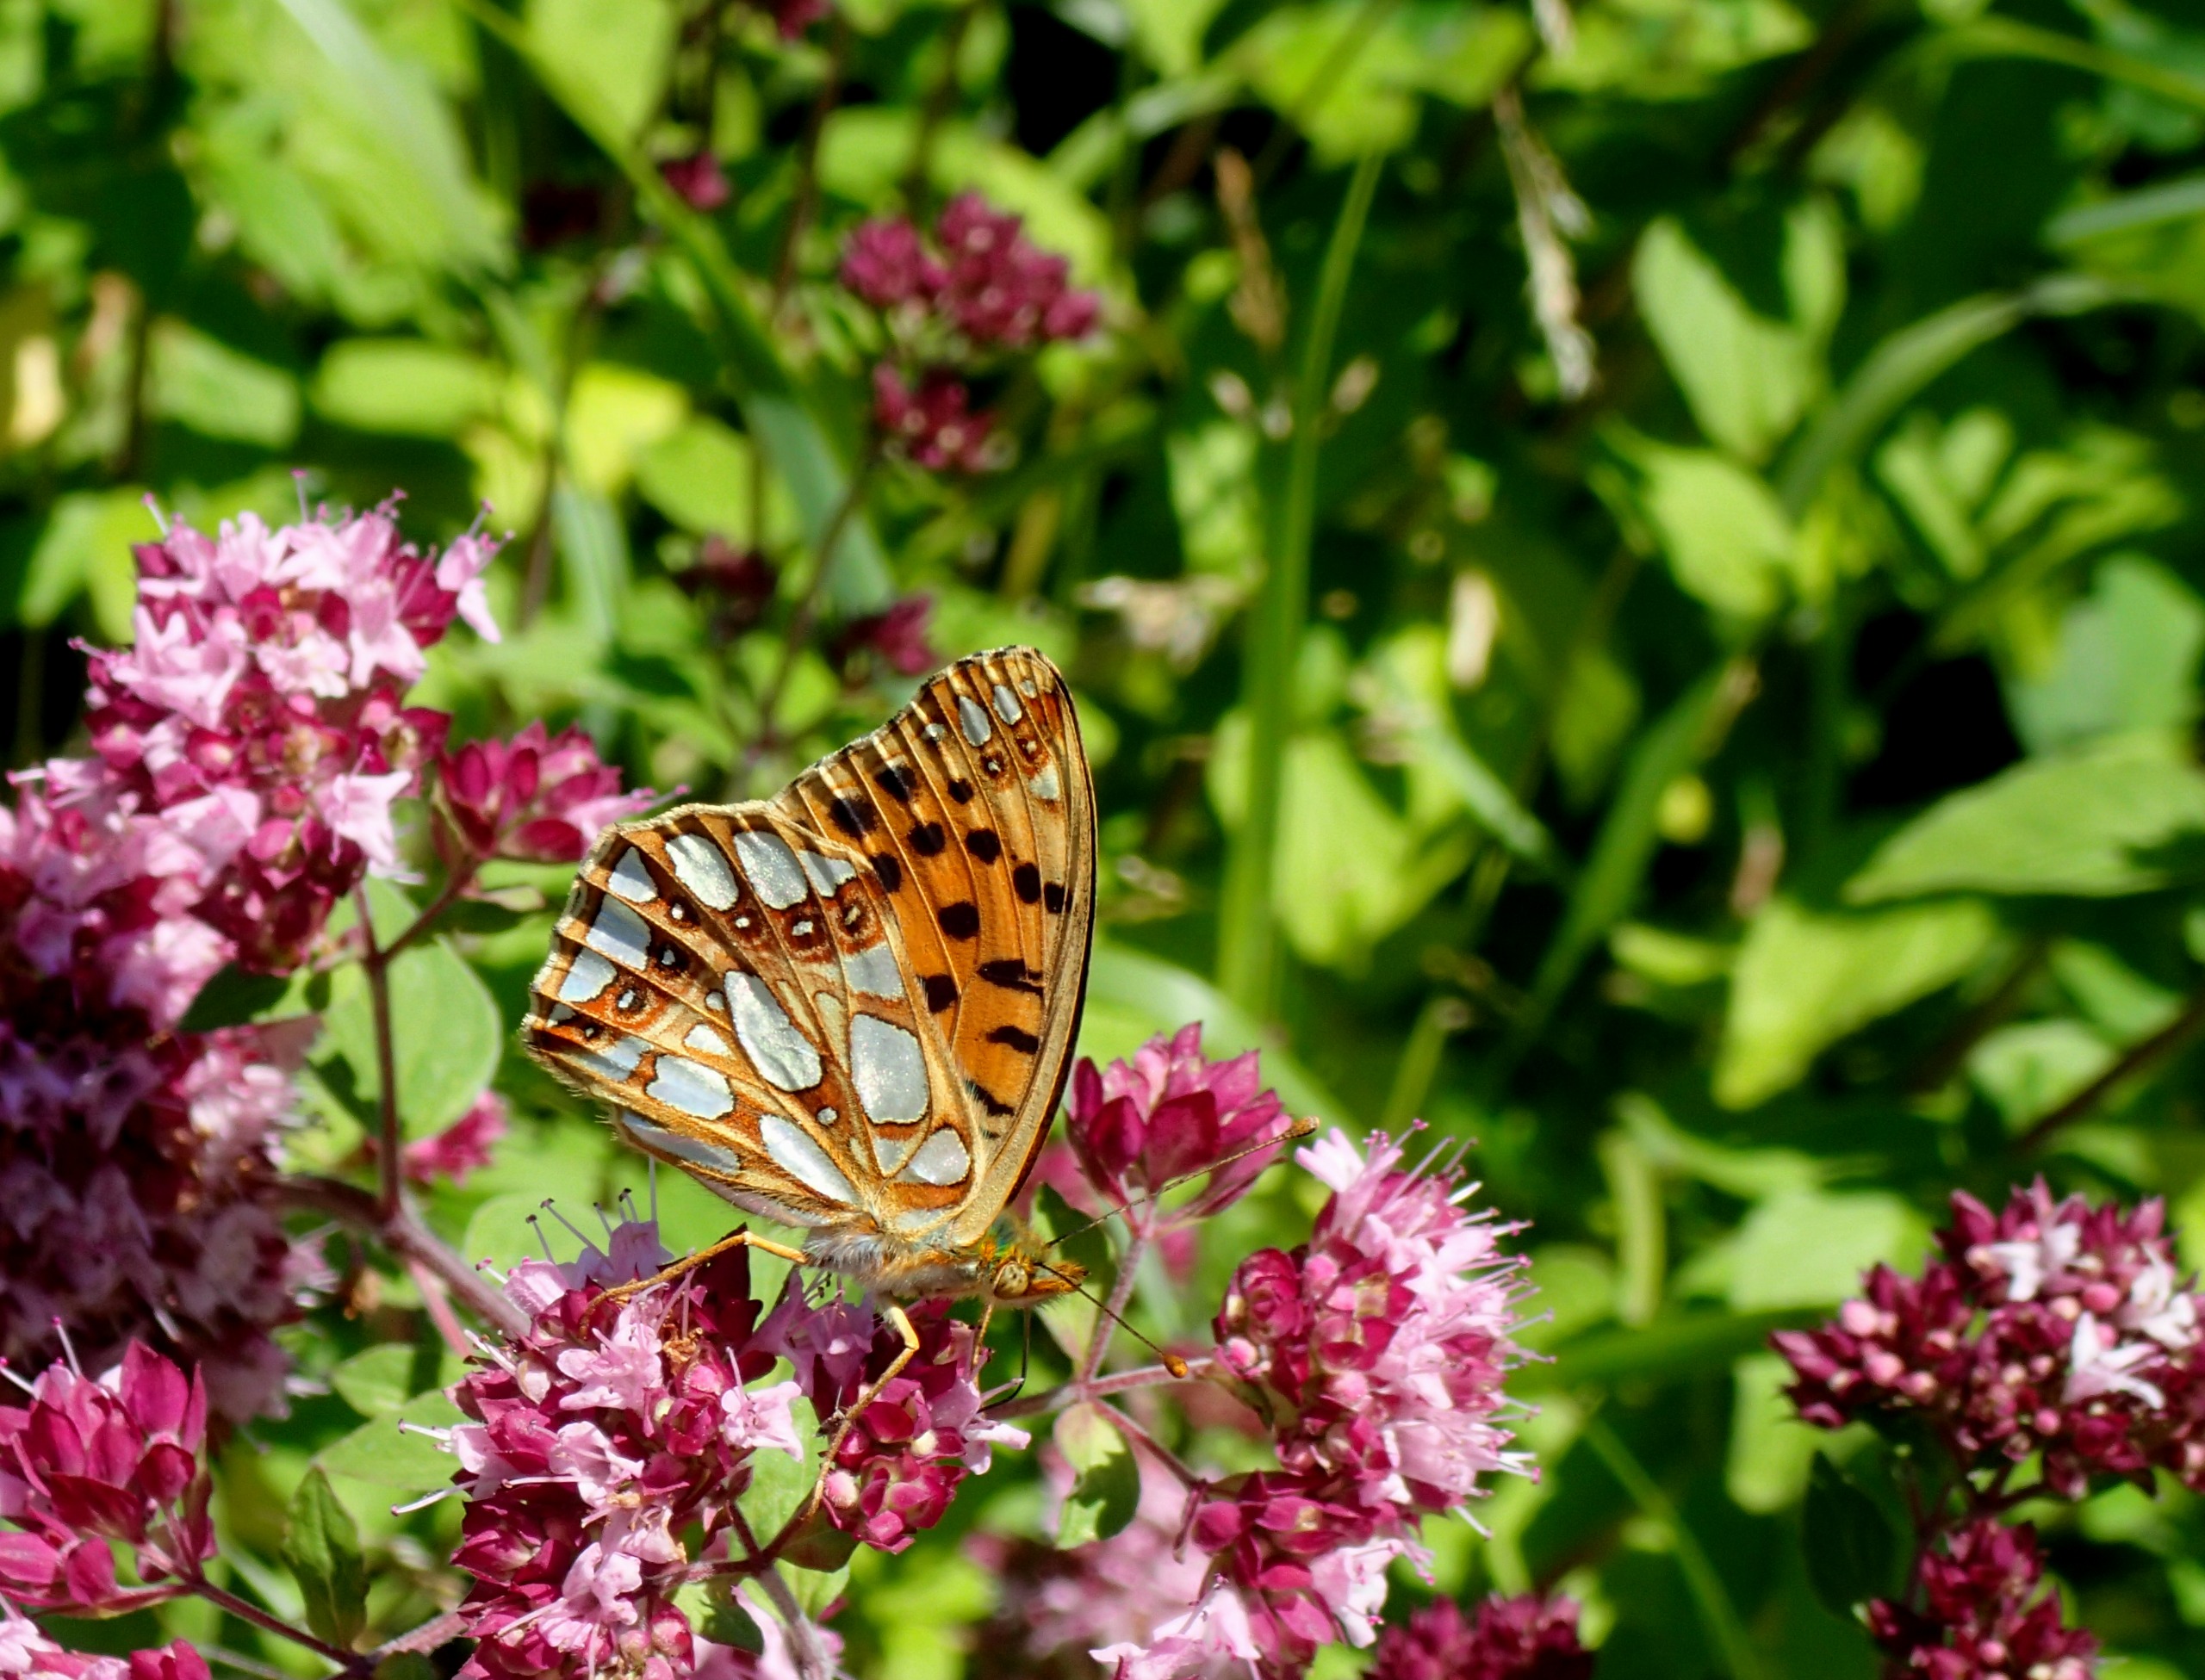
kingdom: Animalia
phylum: Arthropoda
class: Insecta
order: Lepidoptera
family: Nymphalidae
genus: Issoria
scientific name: Issoria lathonia
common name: Storplettet perlemorsommerfugl
